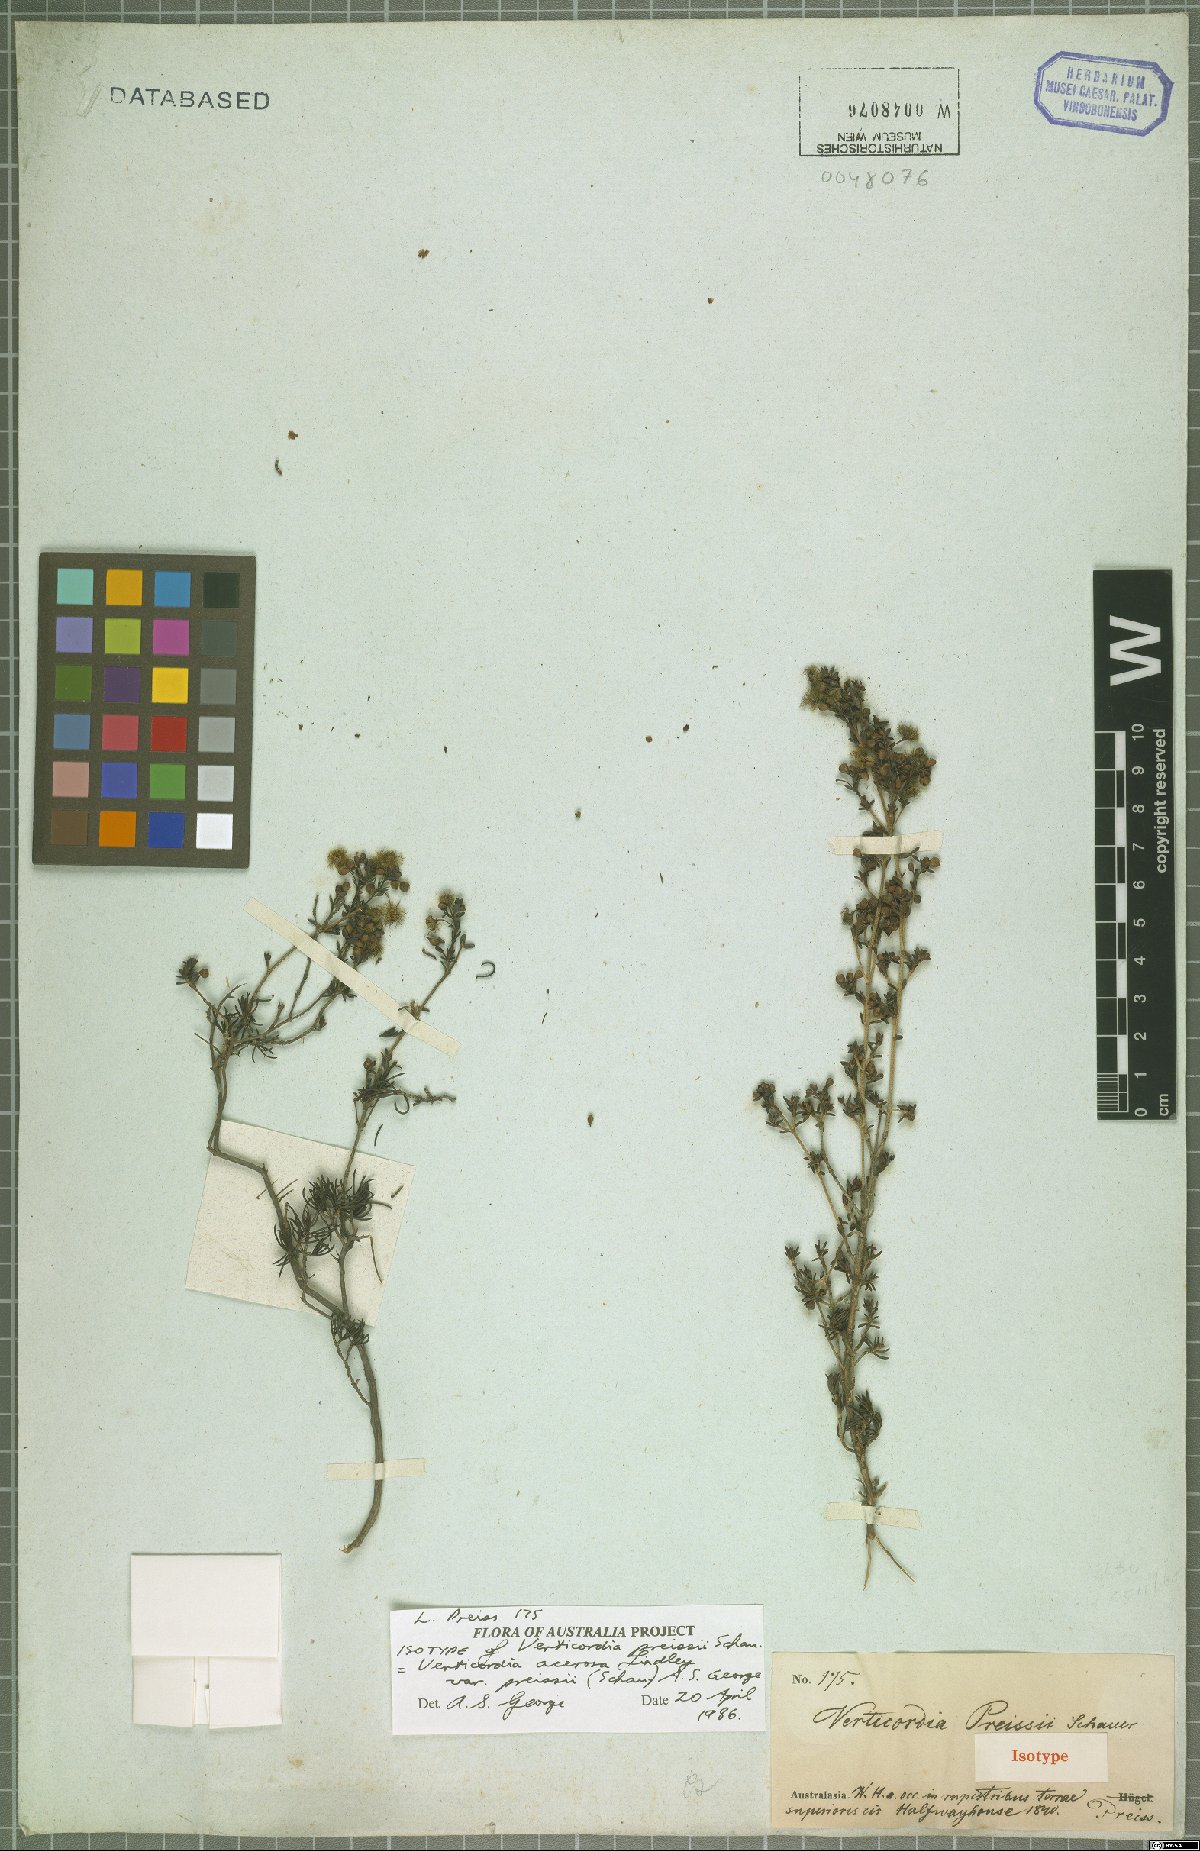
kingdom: Plantae
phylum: Tracheophyta
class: Magnoliopsida
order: Myrtales
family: Myrtaceae
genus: Verticordia
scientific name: Verticordia acerosa
